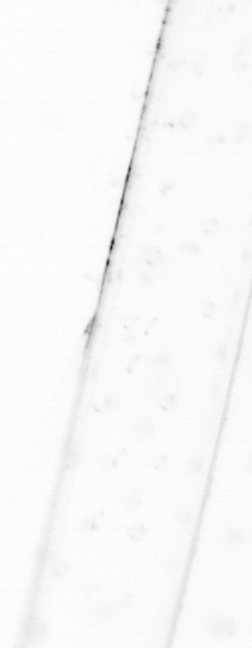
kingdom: Animalia
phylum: Chaetognatha
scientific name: Chaetognatha
